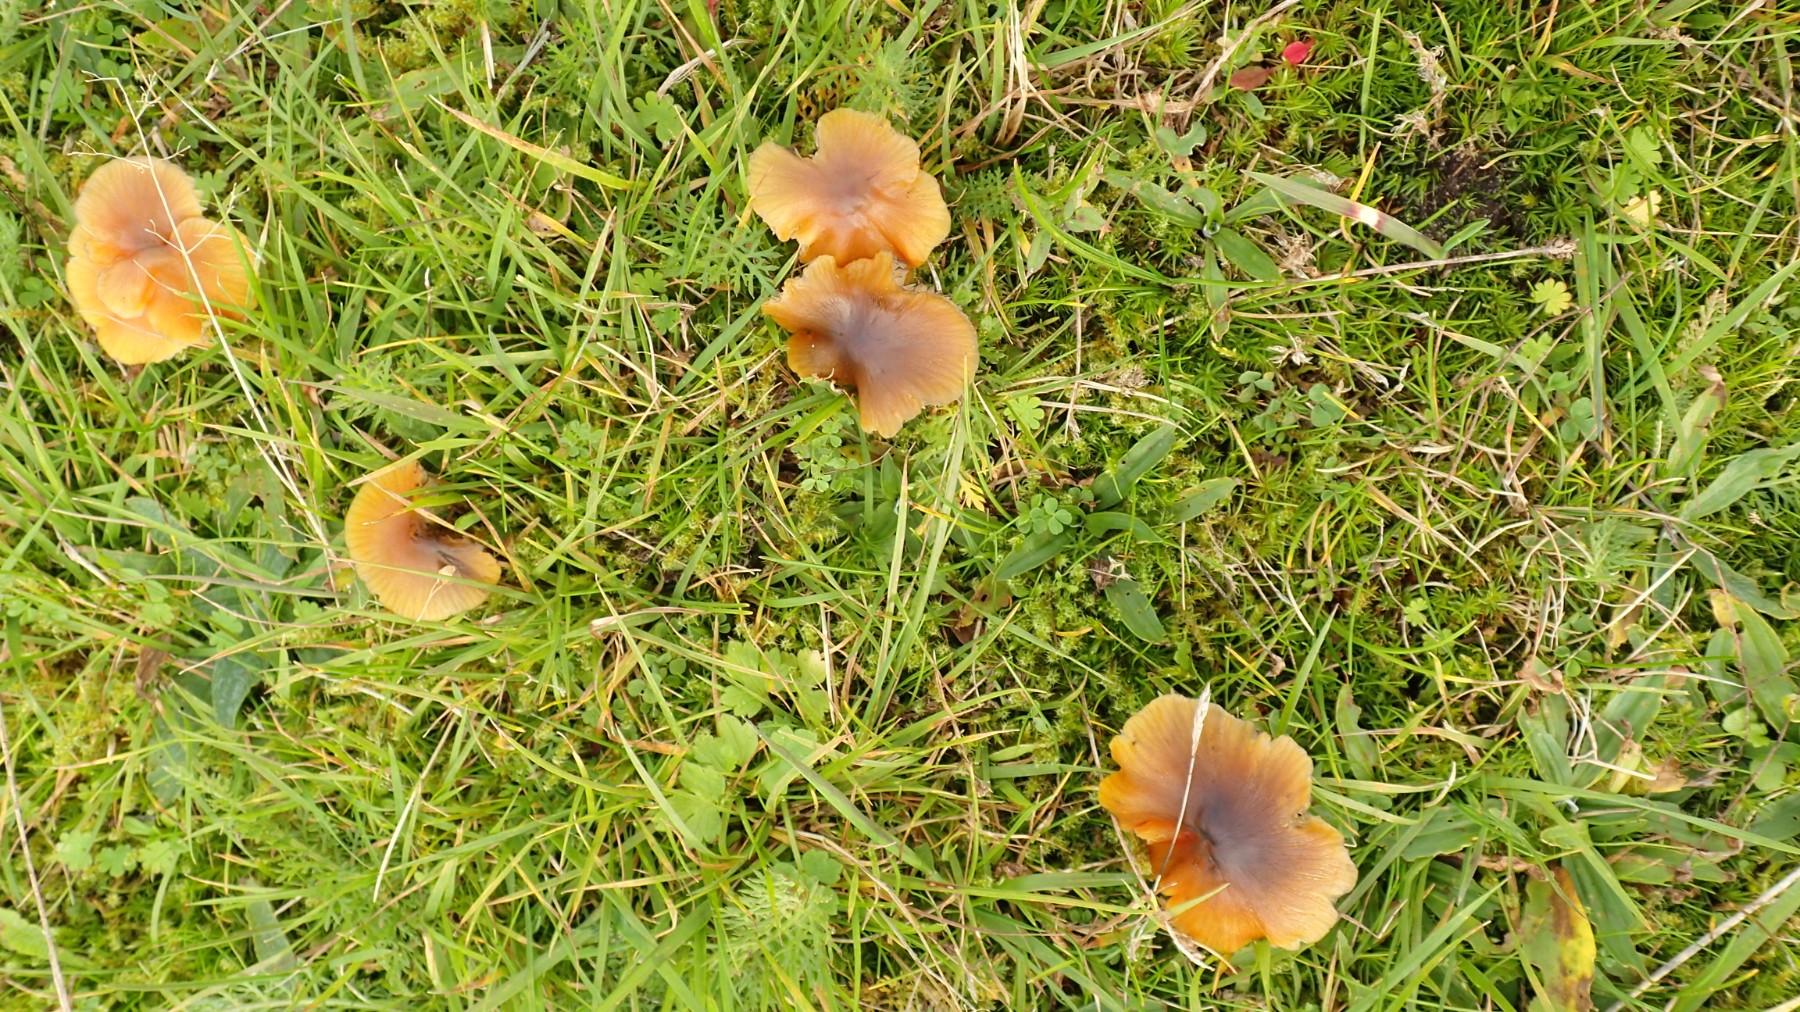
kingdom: Fungi
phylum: Basidiomycota
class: Agaricomycetes
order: Agaricales
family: Hygrophoraceae
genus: Hygrocybe
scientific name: Hygrocybe conica
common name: kegle-vokshat
